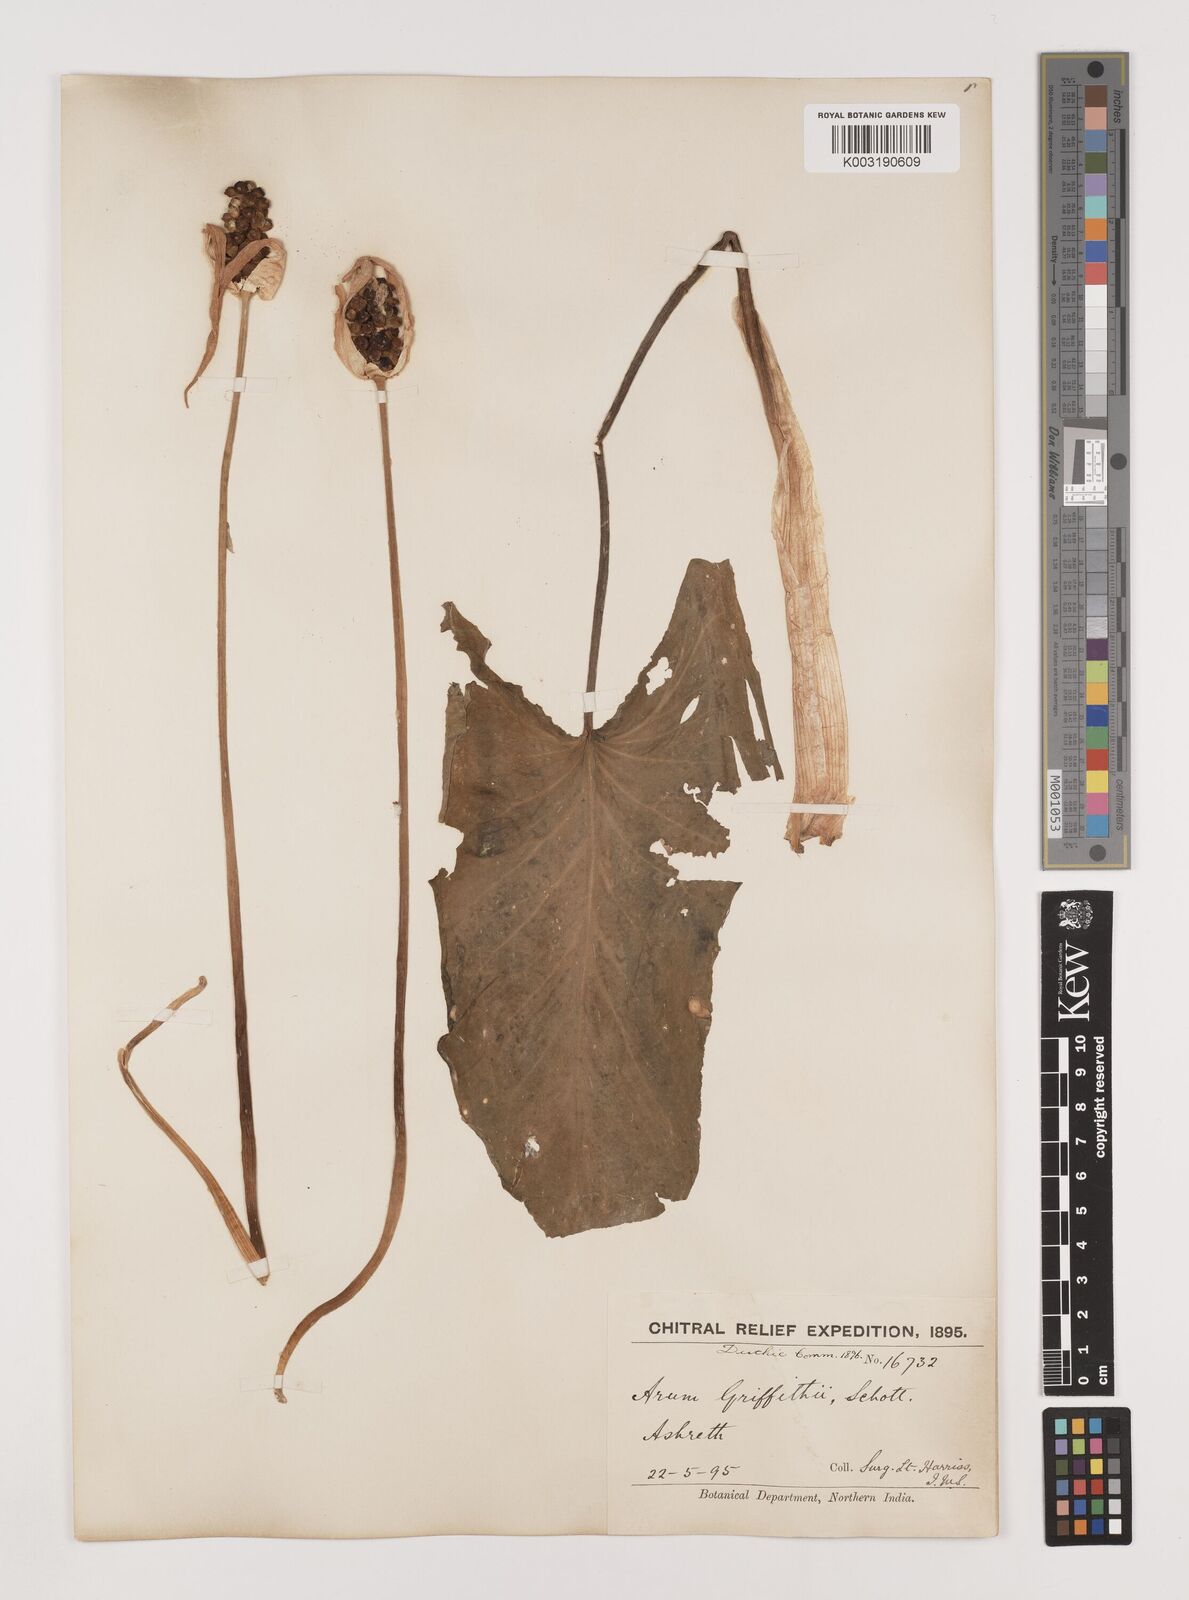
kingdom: Plantae
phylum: Tracheophyta
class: Liliopsida
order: Alismatales
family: Araceae
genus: Arum
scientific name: Arum jacquemontii
